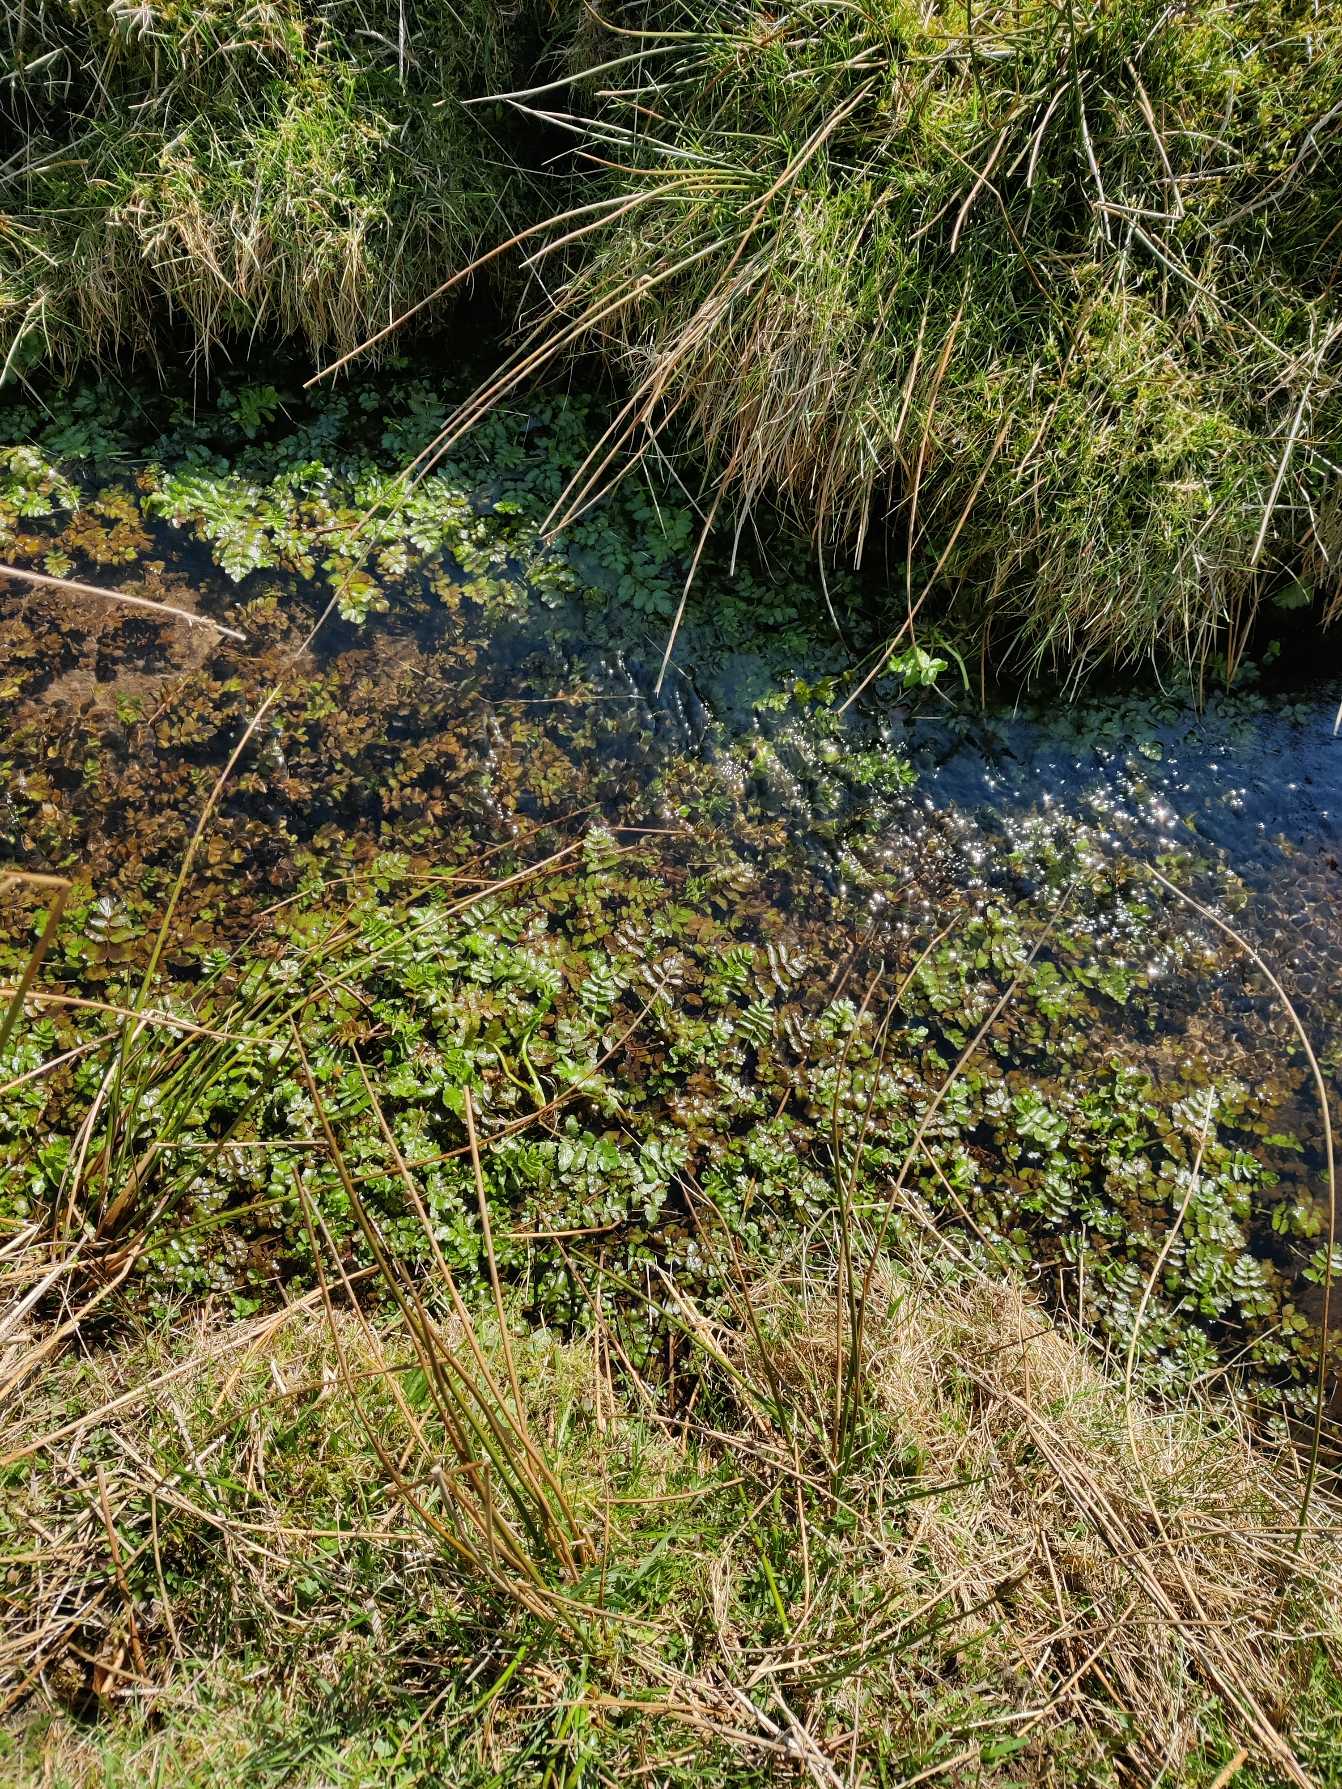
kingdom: Plantae
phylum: Tracheophyta
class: Magnoliopsida
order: Apiales
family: Apiaceae
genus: Berula
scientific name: Berula erecta
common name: Sideskærm
